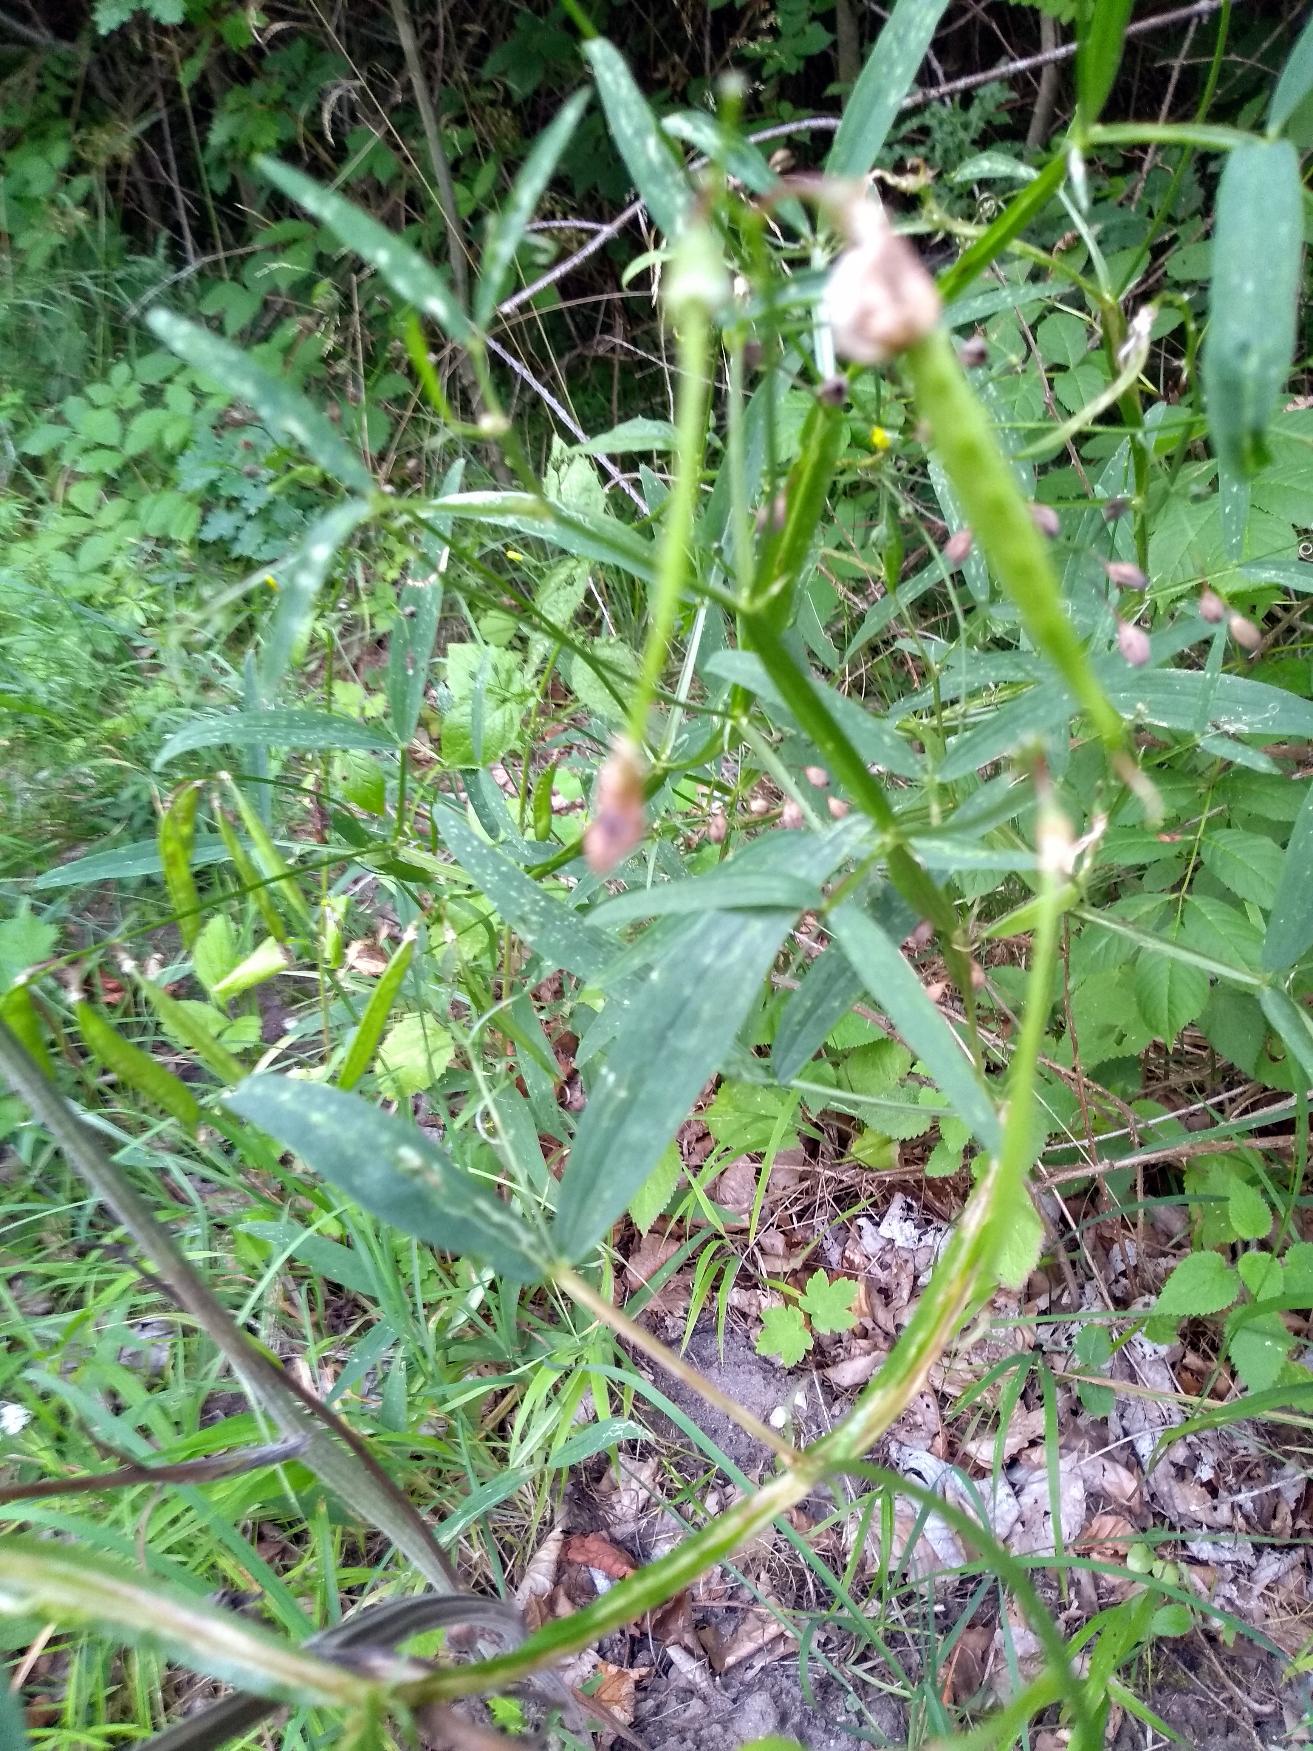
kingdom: Plantae
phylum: Tracheophyta
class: Magnoliopsida
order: Fabales
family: Fabaceae
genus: Lathyrus
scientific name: Lathyrus sylvestris
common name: Skov-fladbælg
